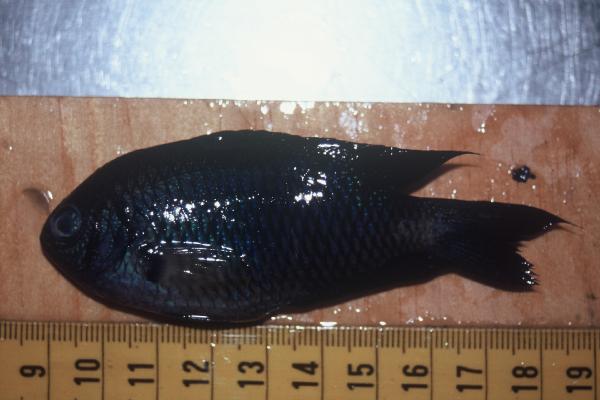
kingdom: Animalia
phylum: Chordata
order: Perciformes
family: Pomacentridae
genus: Pomacentrus
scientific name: Pomacentrus caeruleus
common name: Caerulean damsel
